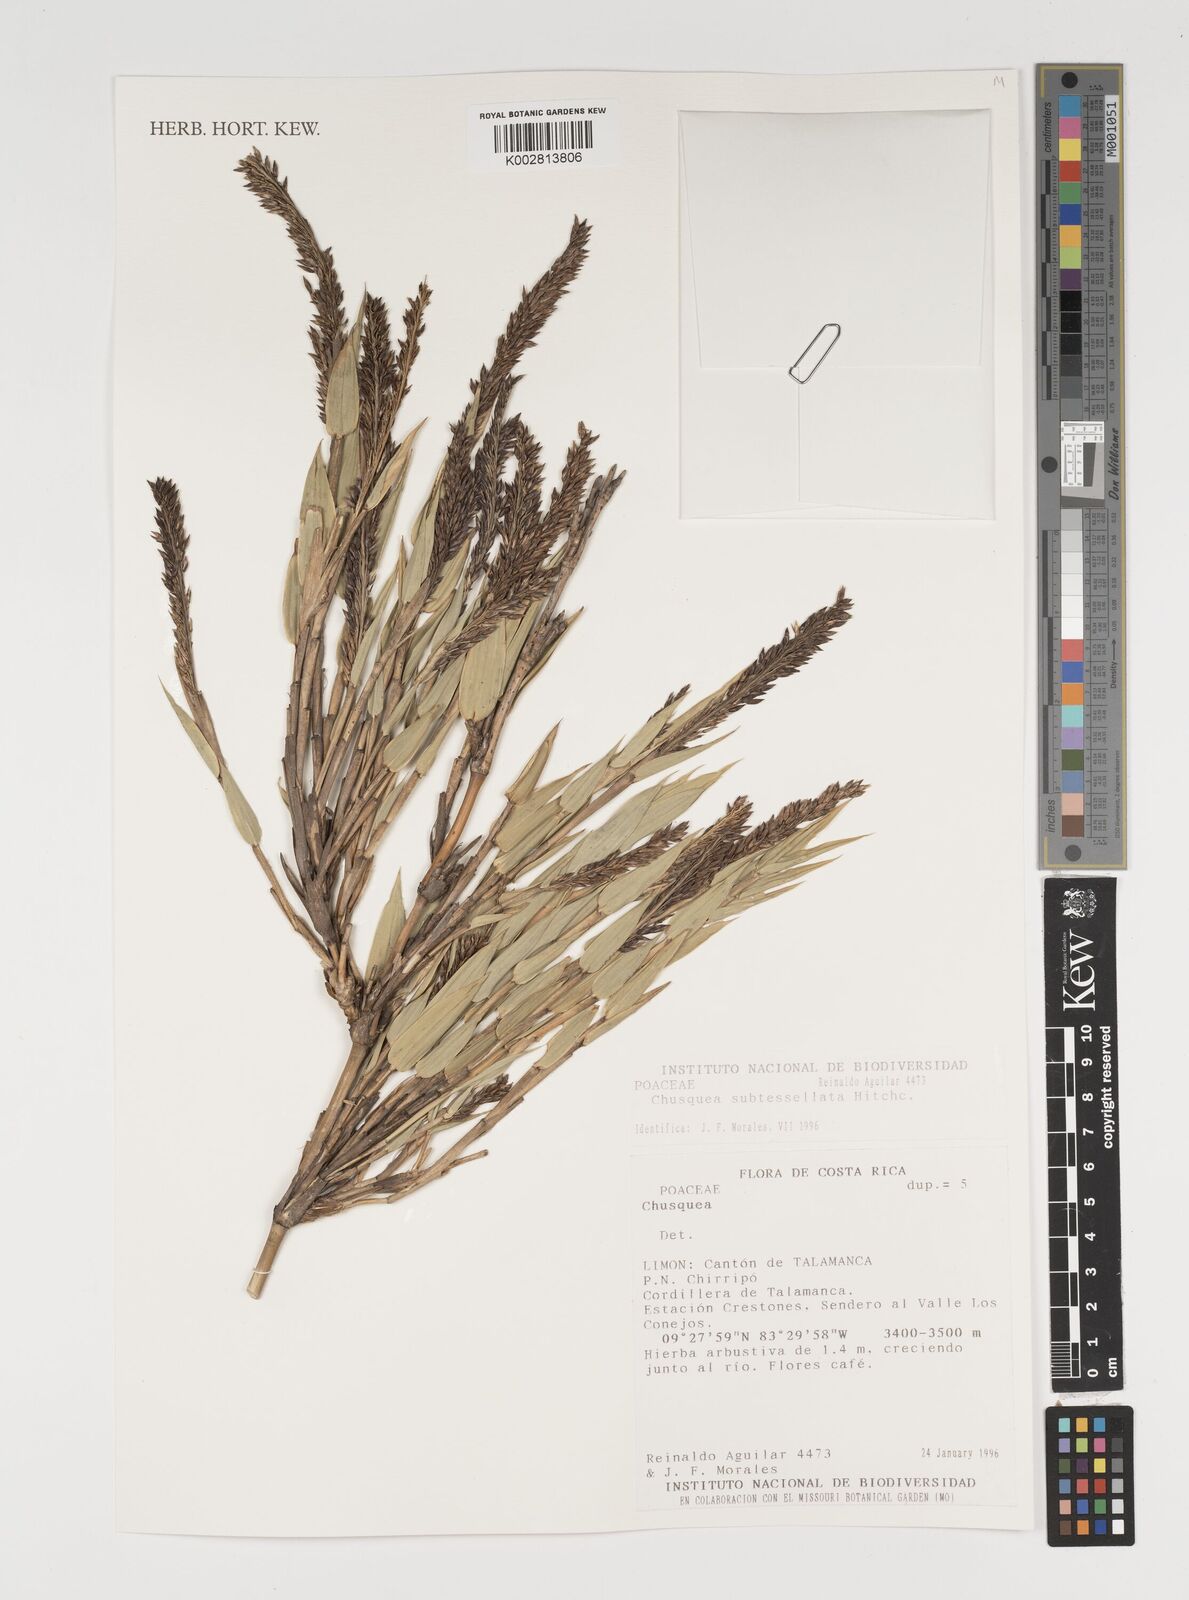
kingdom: Plantae
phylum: Tracheophyta
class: Liliopsida
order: Poales
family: Poaceae
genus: Chusquea
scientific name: Chusquea subtessellata
